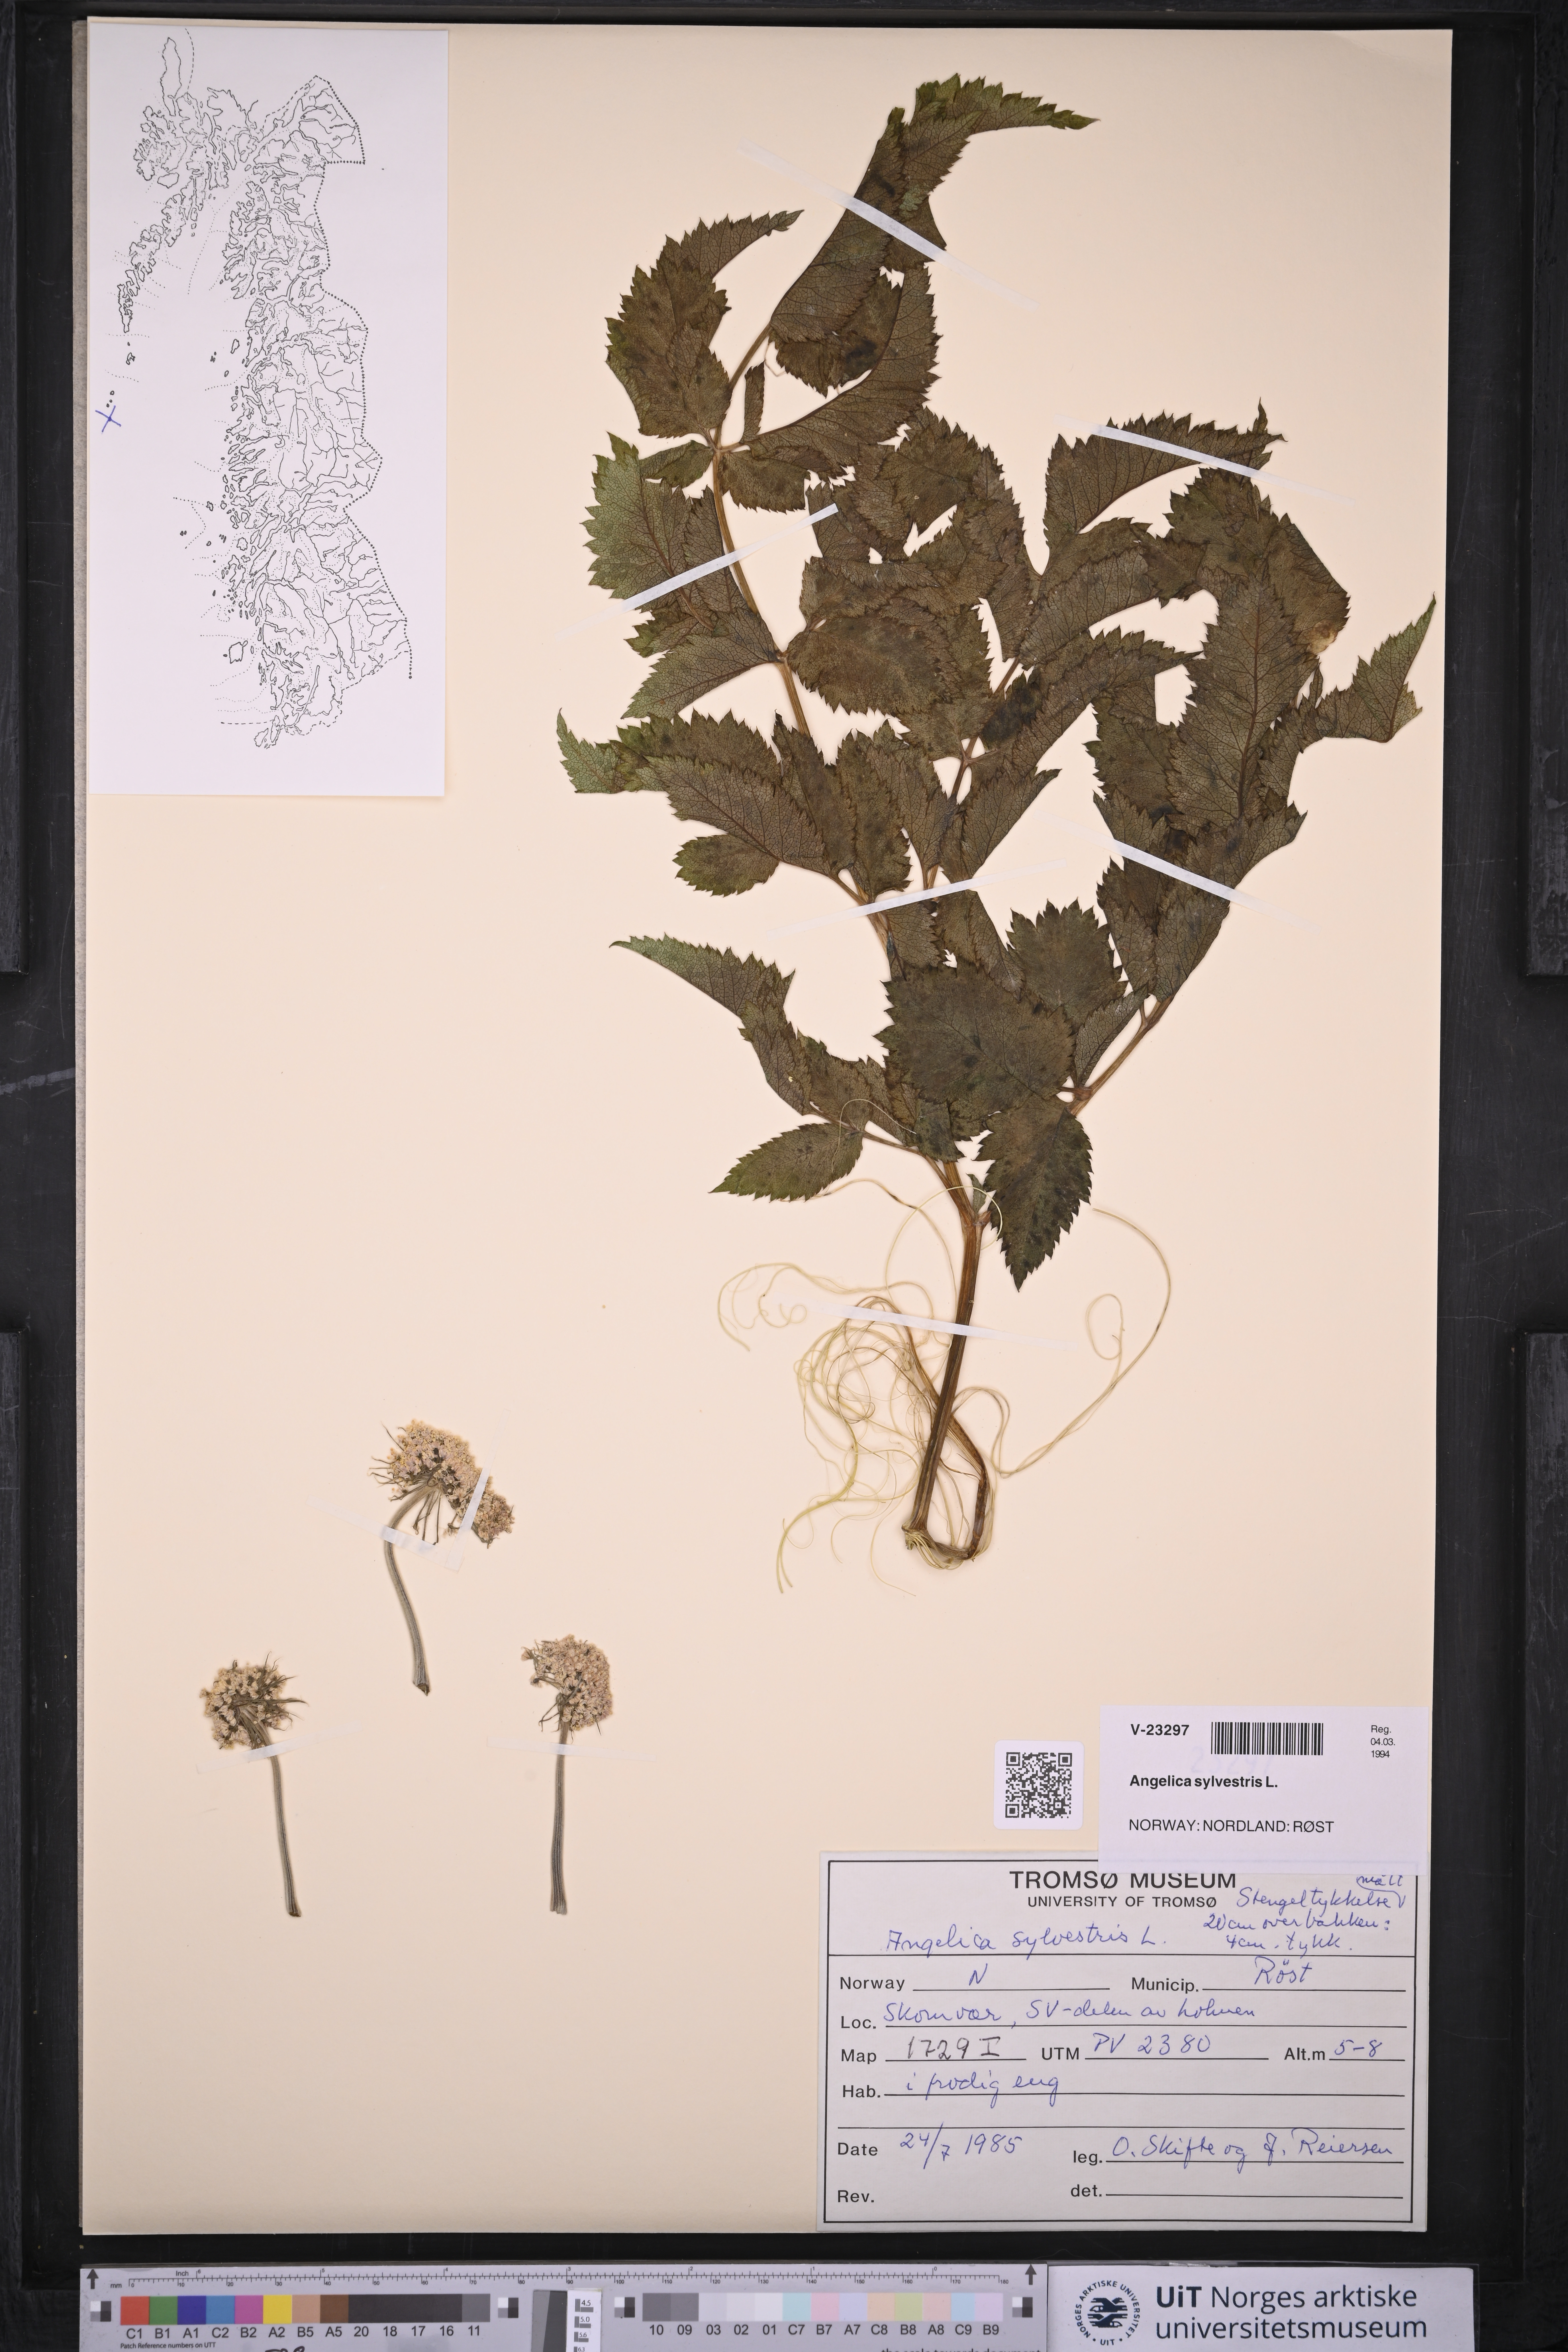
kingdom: Plantae
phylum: Tracheophyta
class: Magnoliopsida
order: Apiales
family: Apiaceae
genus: Angelica
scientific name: Angelica sylvestris
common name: Wild angelica
